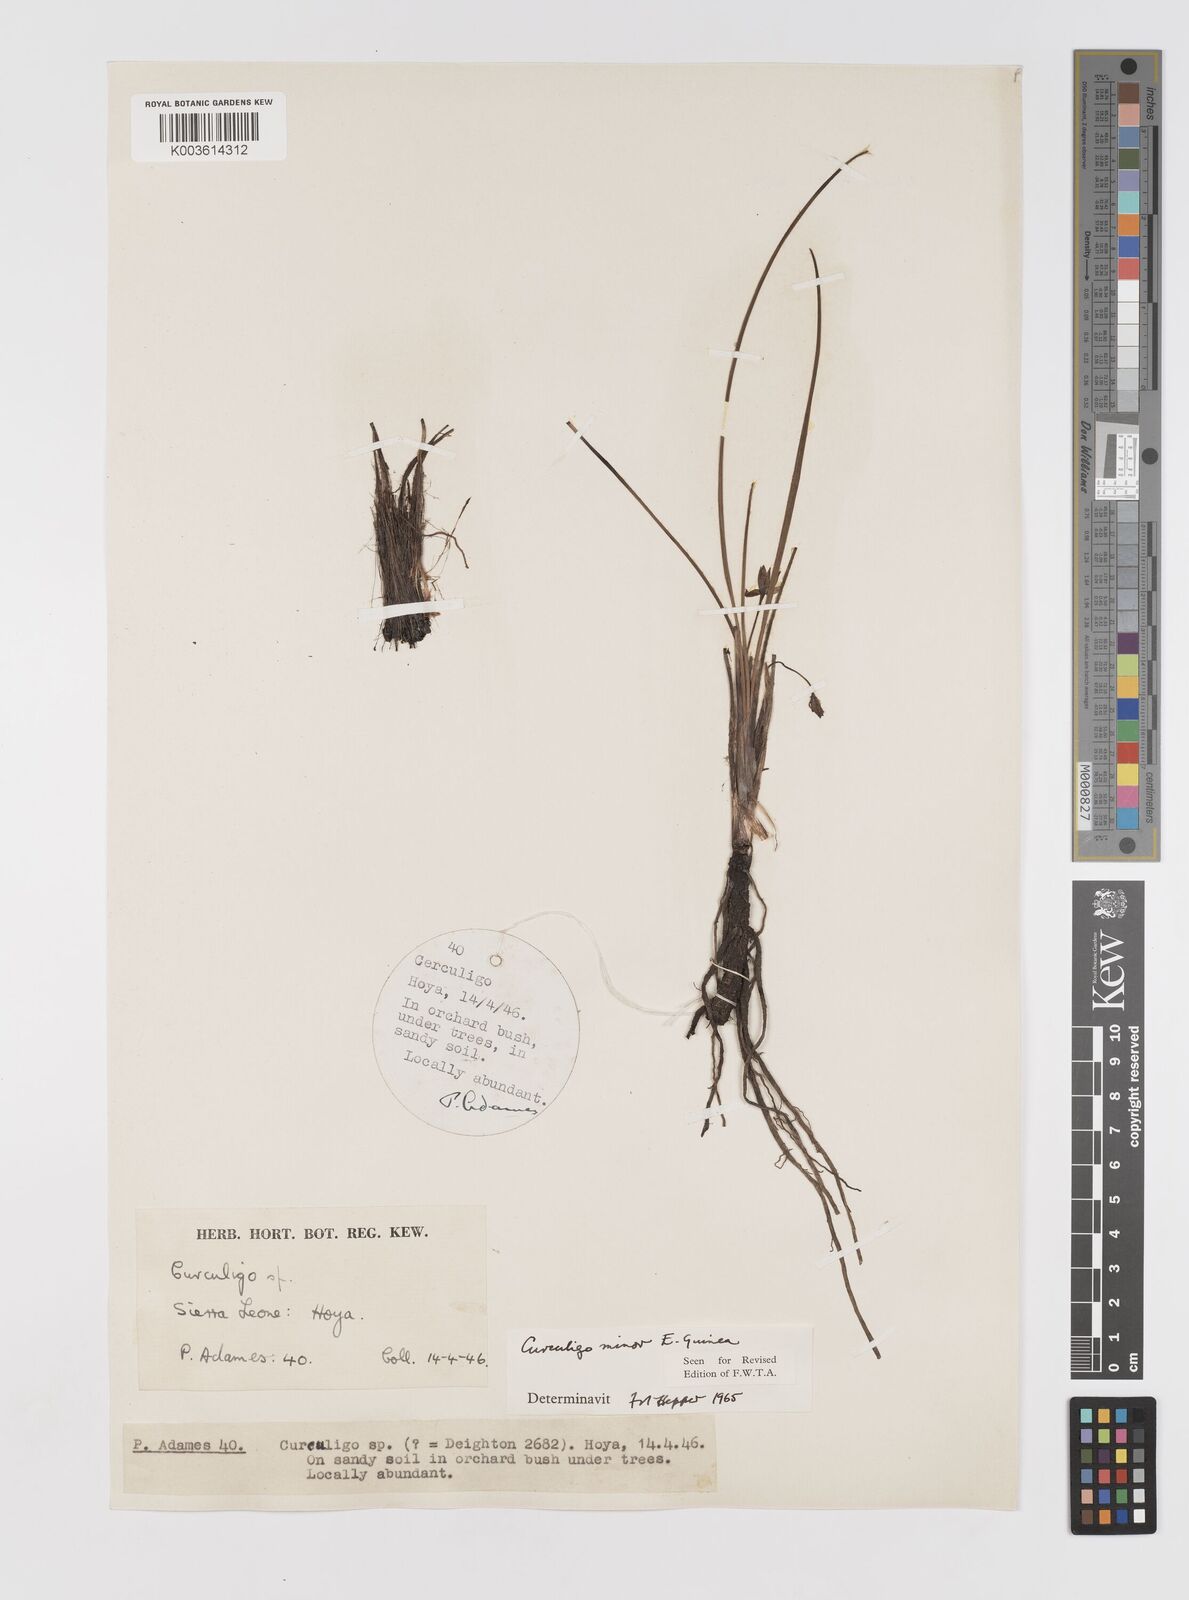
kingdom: Plantae
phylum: Tracheophyta
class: Liliopsida
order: Asparagales
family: Hypoxidaceae
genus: Curculigo
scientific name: Curculigo
